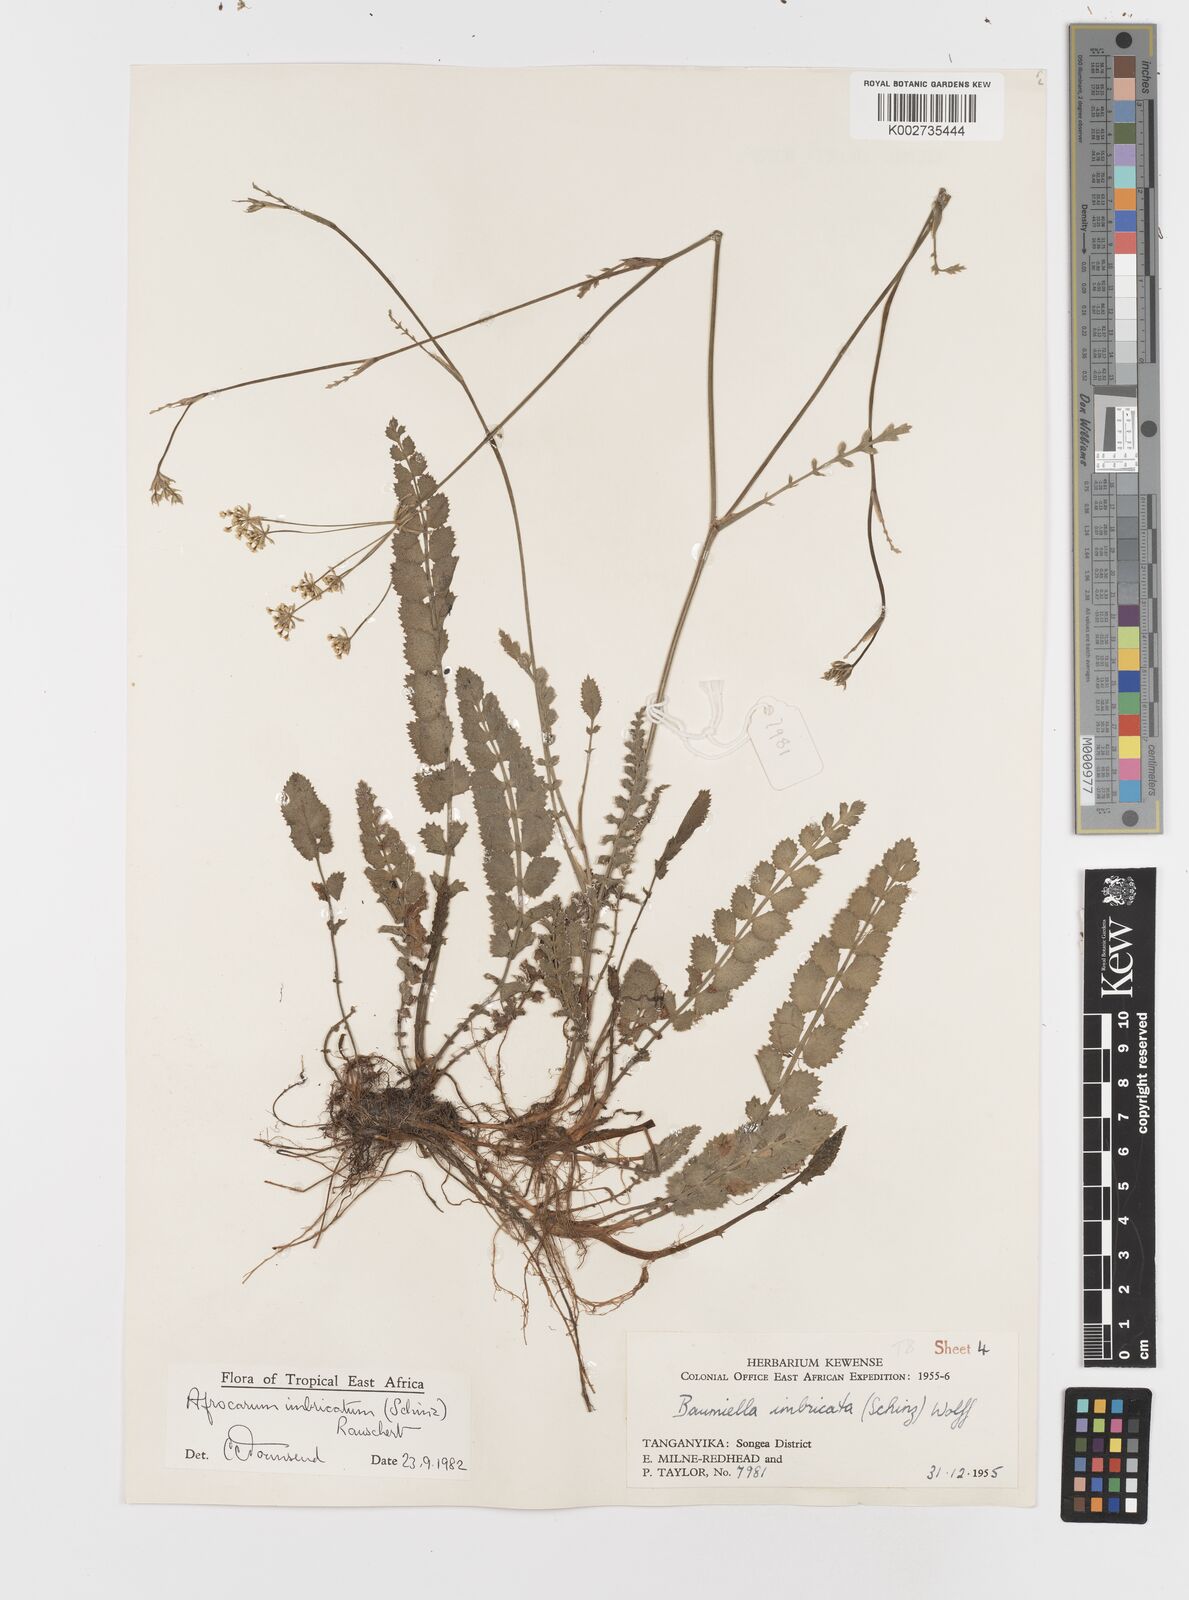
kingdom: Plantae
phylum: Tracheophyta
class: Magnoliopsida
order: Apiales
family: Apiaceae
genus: Berula
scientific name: Berula imbricata
